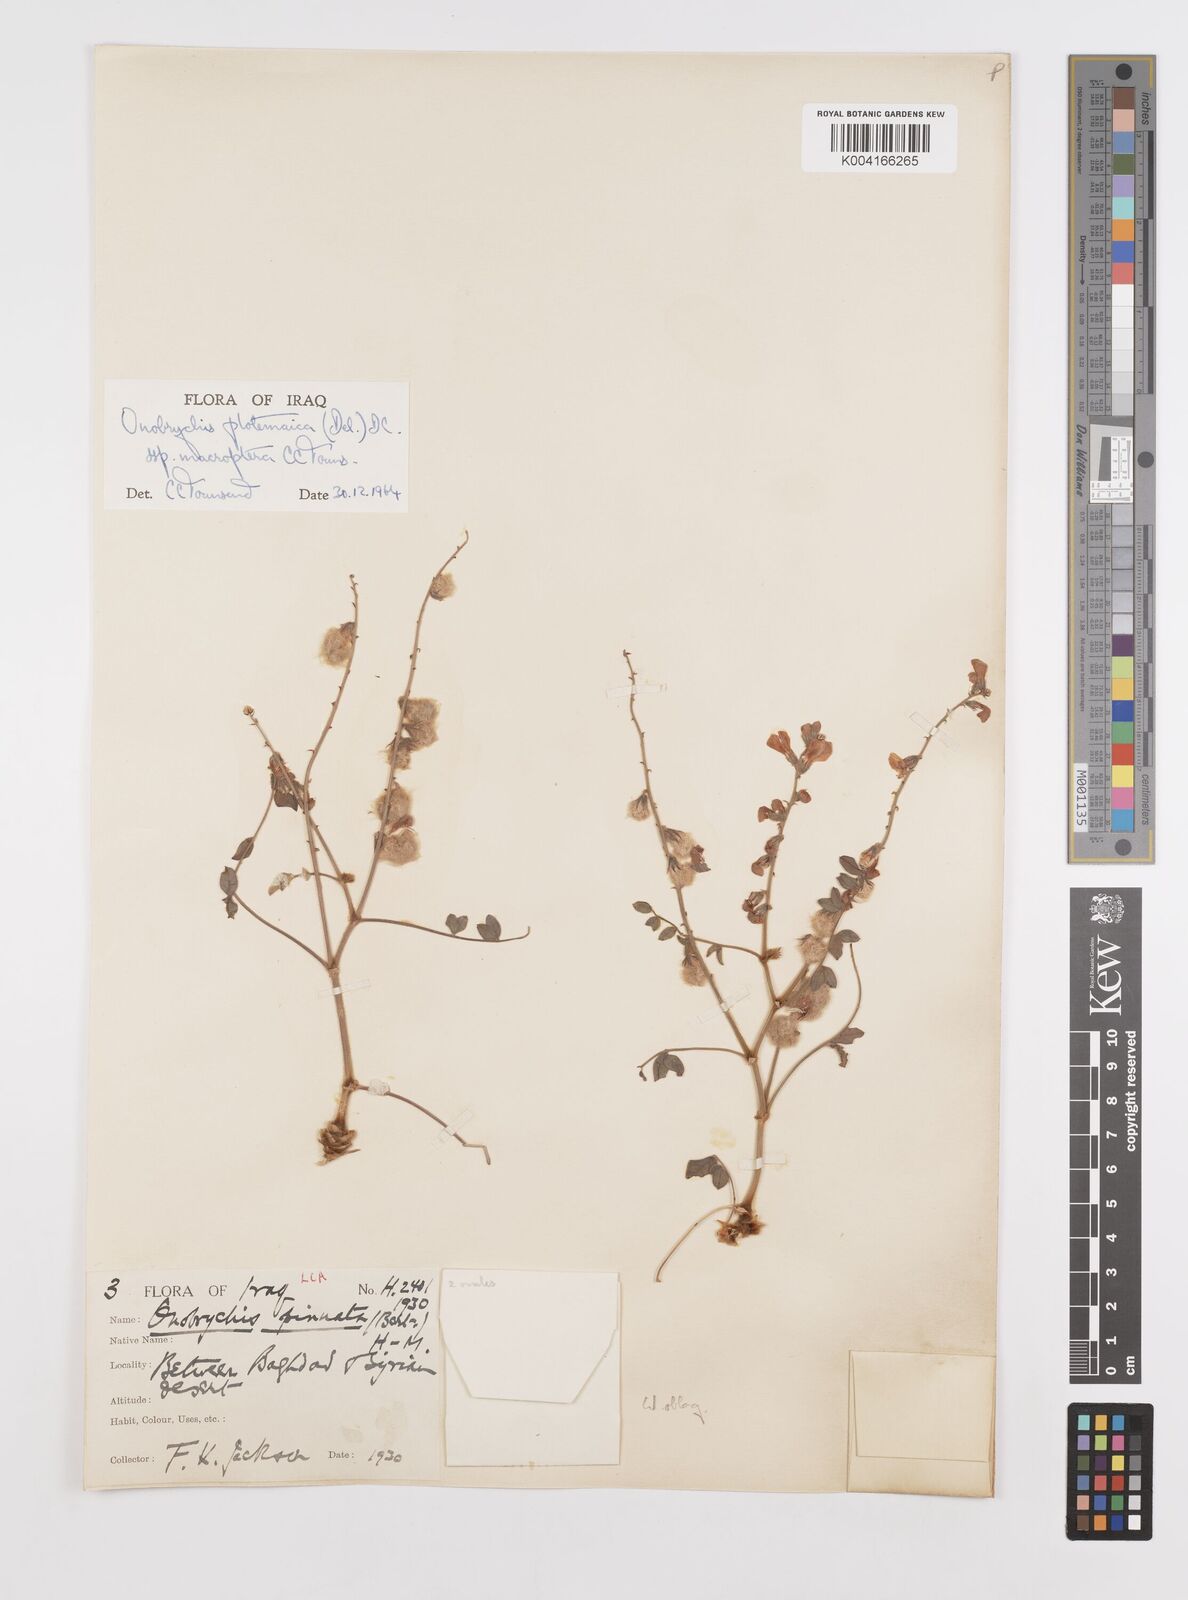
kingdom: Plantae
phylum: Tracheophyta
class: Magnoliopsida
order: Fabales
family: Fabaceae
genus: Onobrychis
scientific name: Onobrychis ptolemaica
